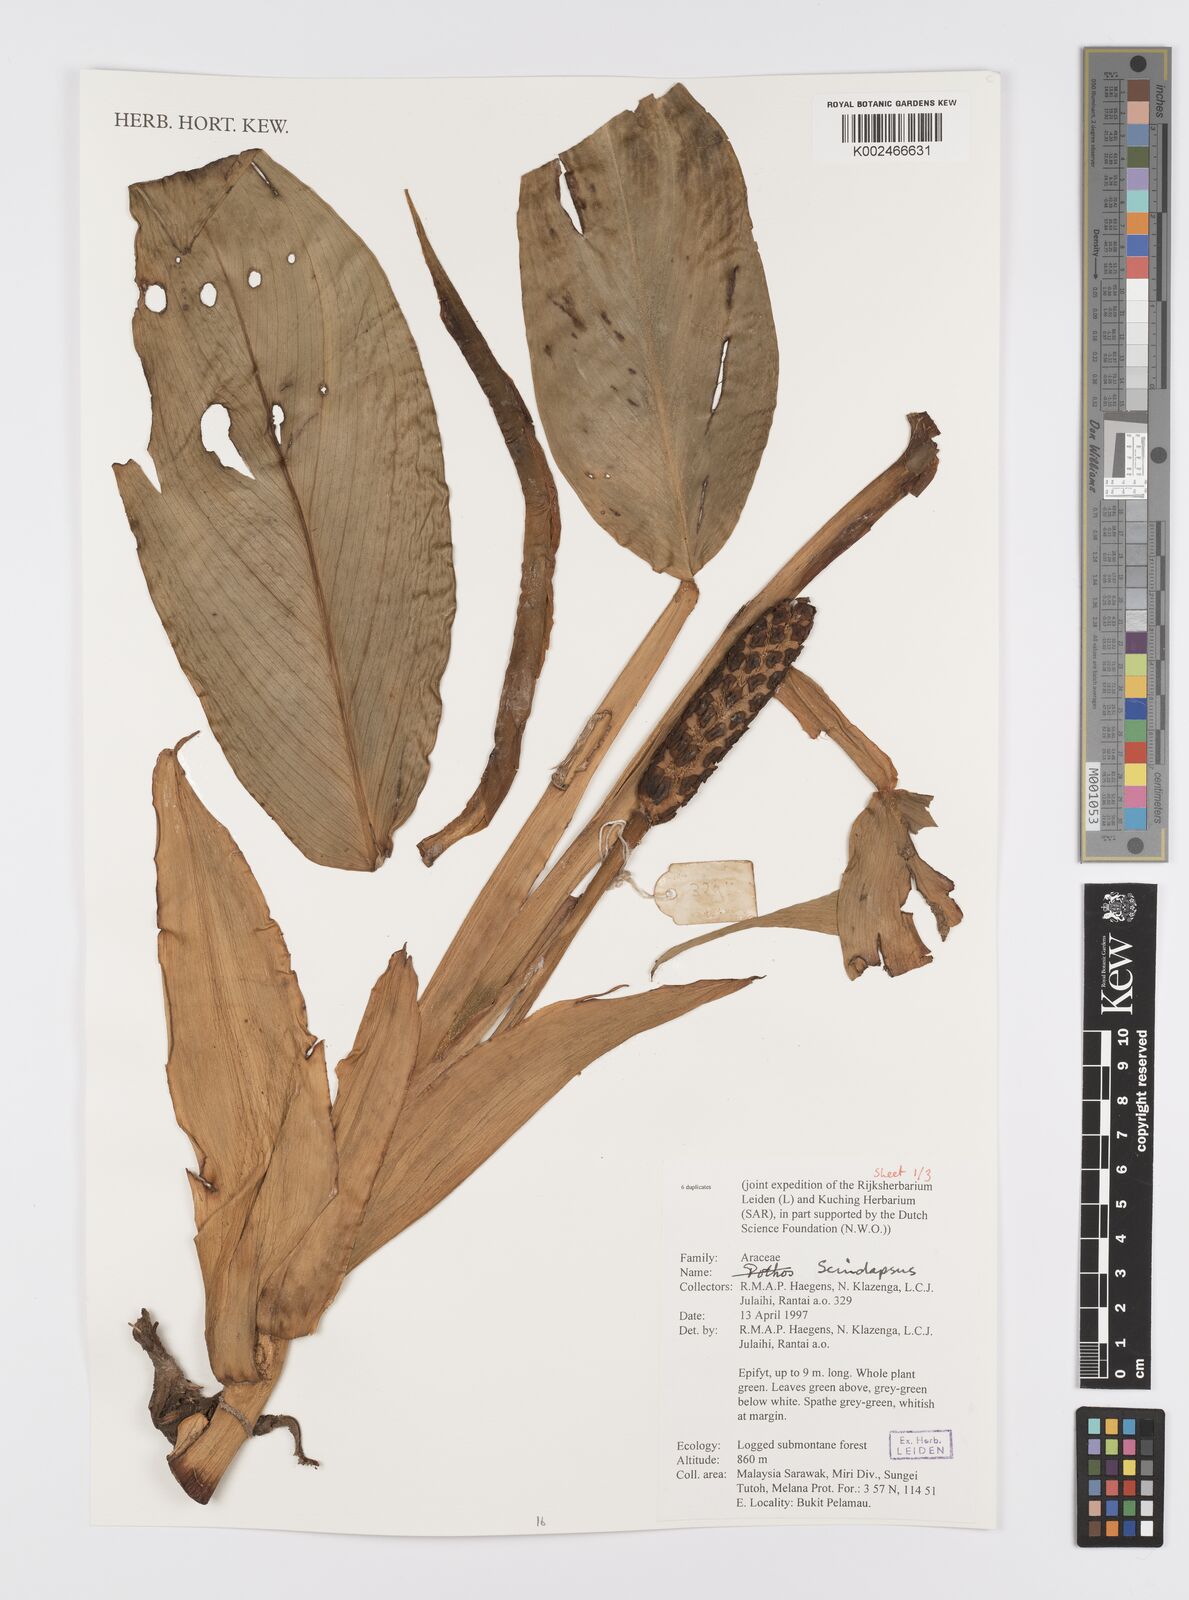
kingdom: Plantae
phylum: Tracheophyta
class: Liliopsida
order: Alismatales
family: Araceae
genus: Scindapsus
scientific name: Scindapsus
